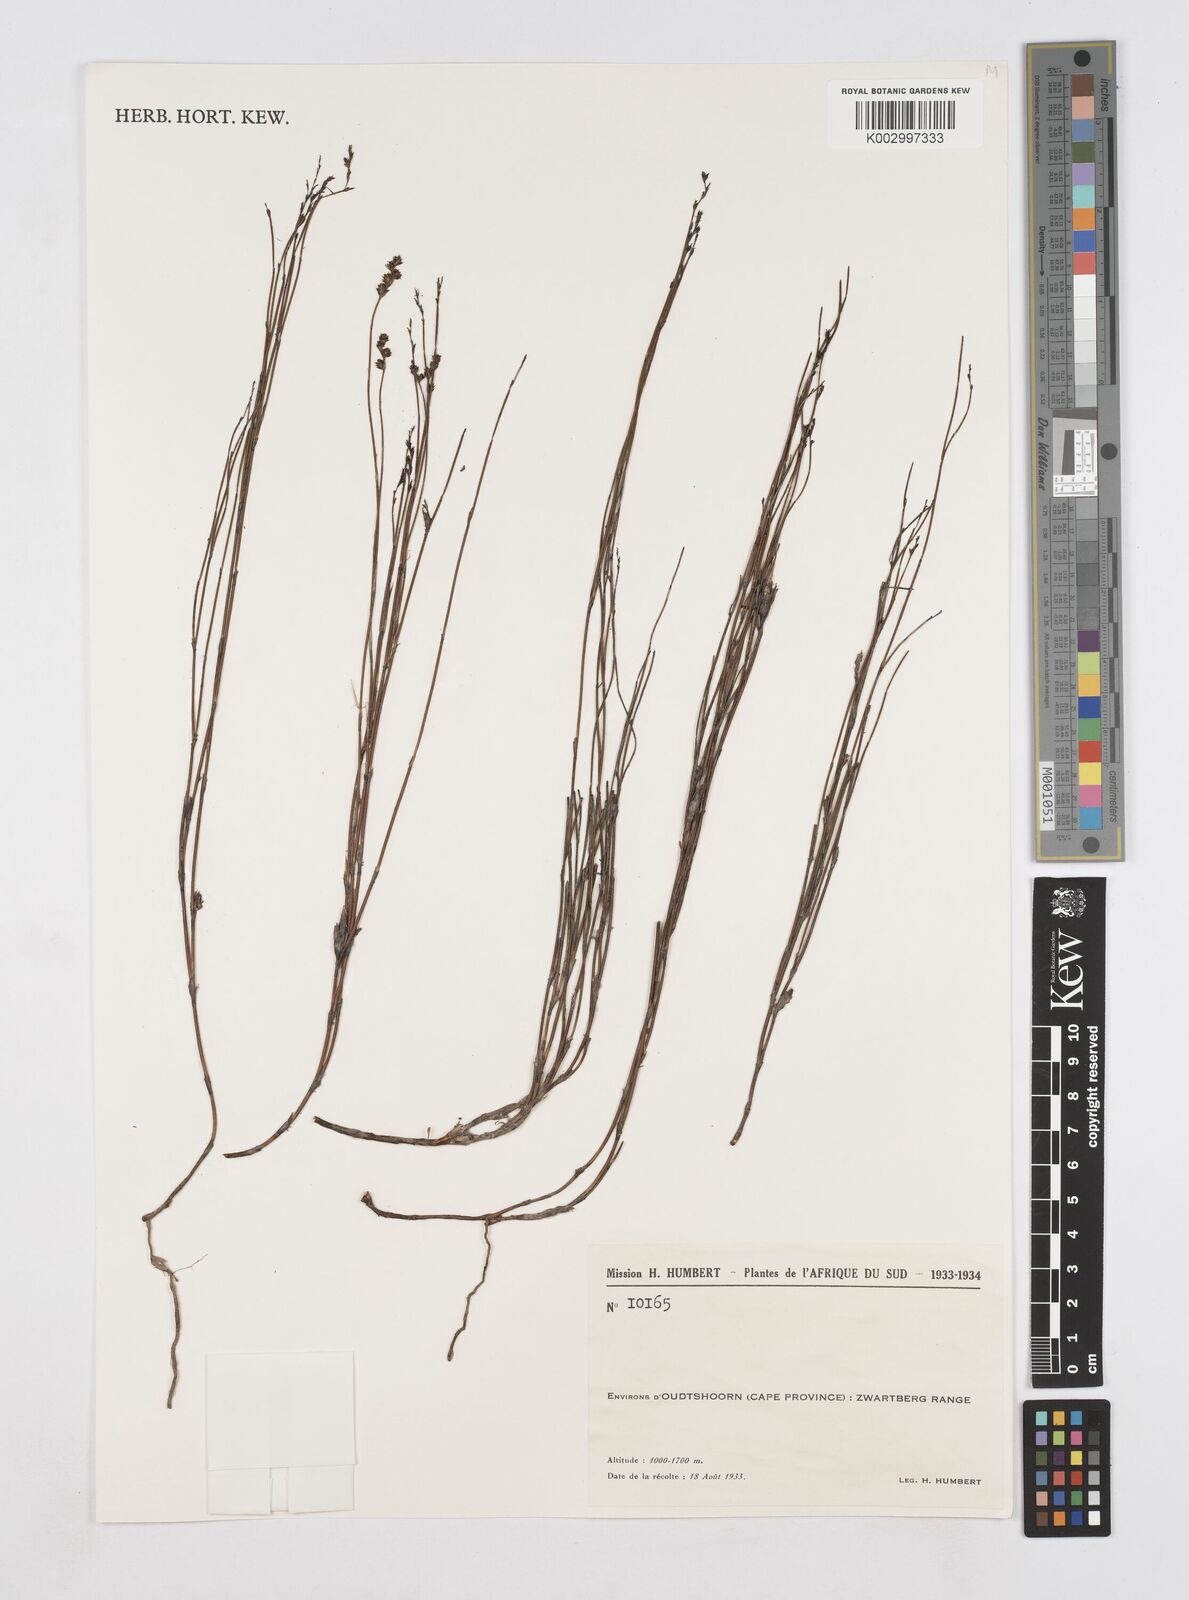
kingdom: Plantae
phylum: Tracheophyta
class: Liliopsida
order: Poales
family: Restionaceae
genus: Platycaulos
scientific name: Platycaulos
